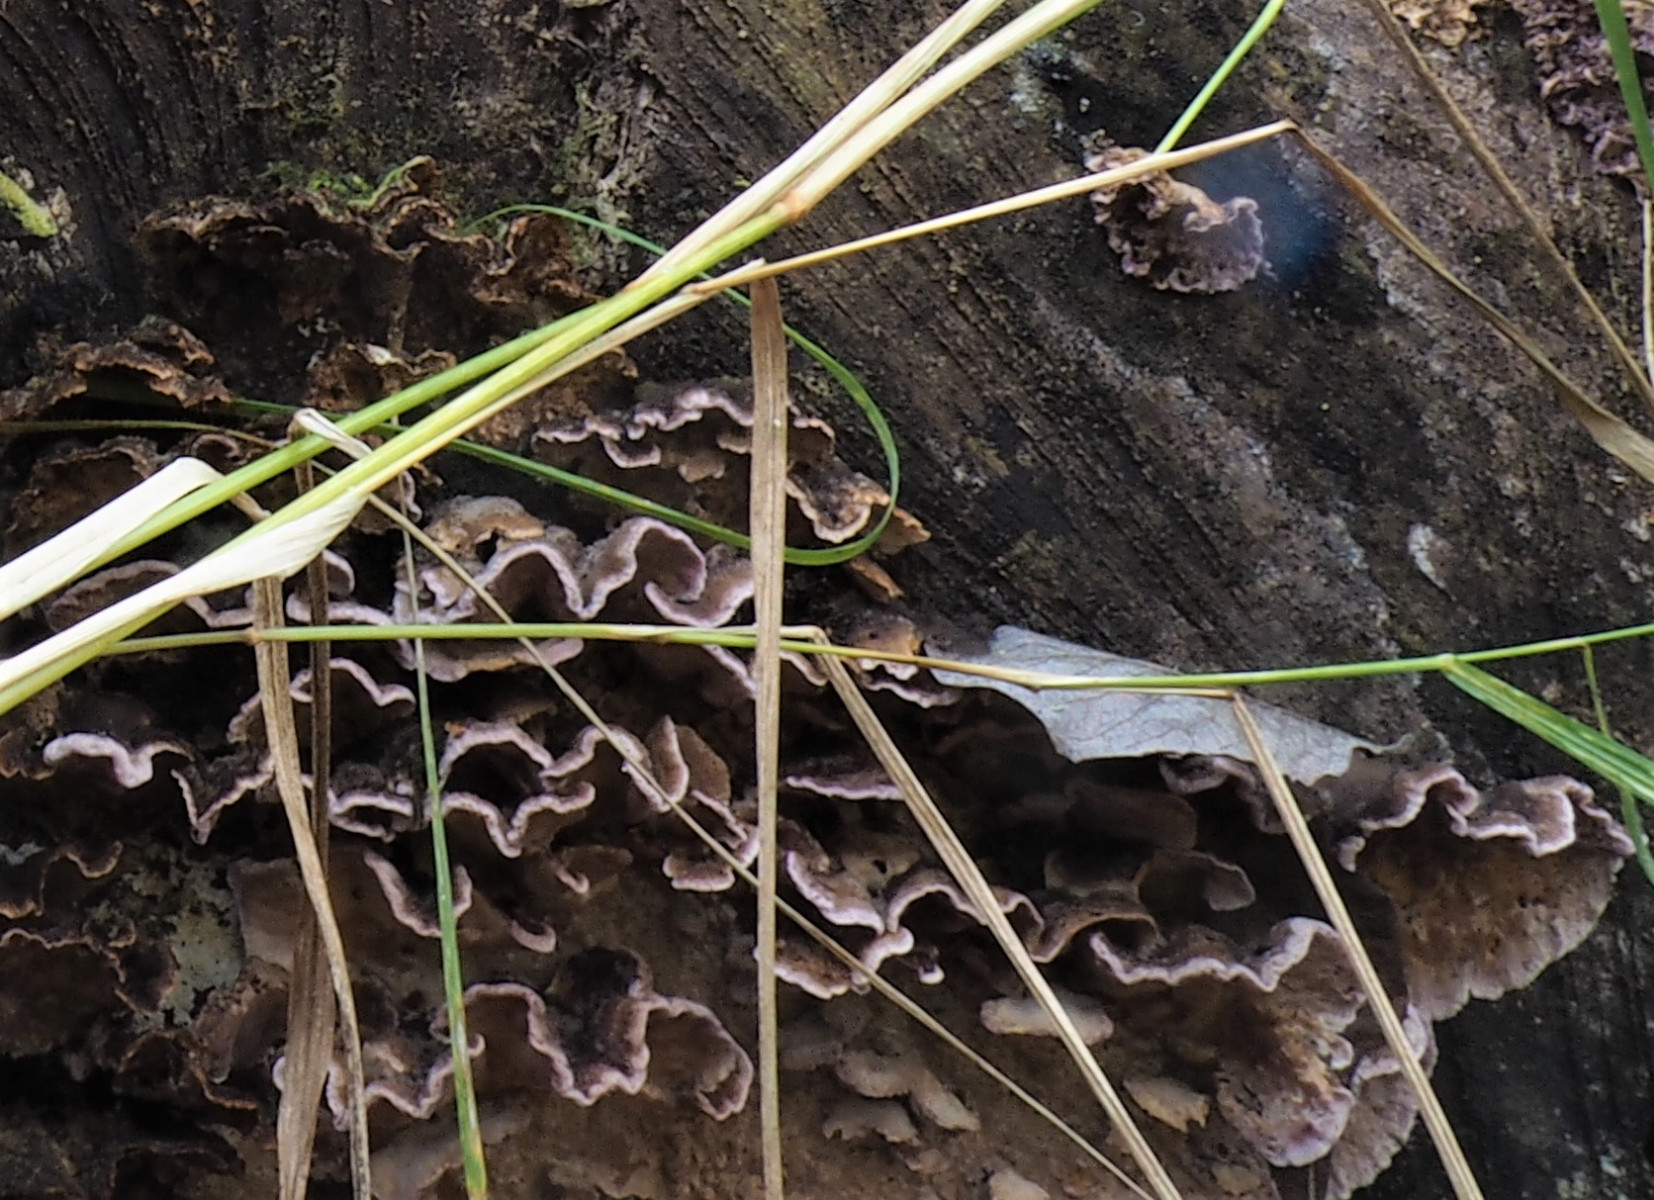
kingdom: Fungi
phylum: Basidiomycota
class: Agaricomycetes
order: Agaricales
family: Cyphellaceae
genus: Chondrostereum
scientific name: Chondrostereum purpureum
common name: purpurlædersvamp
